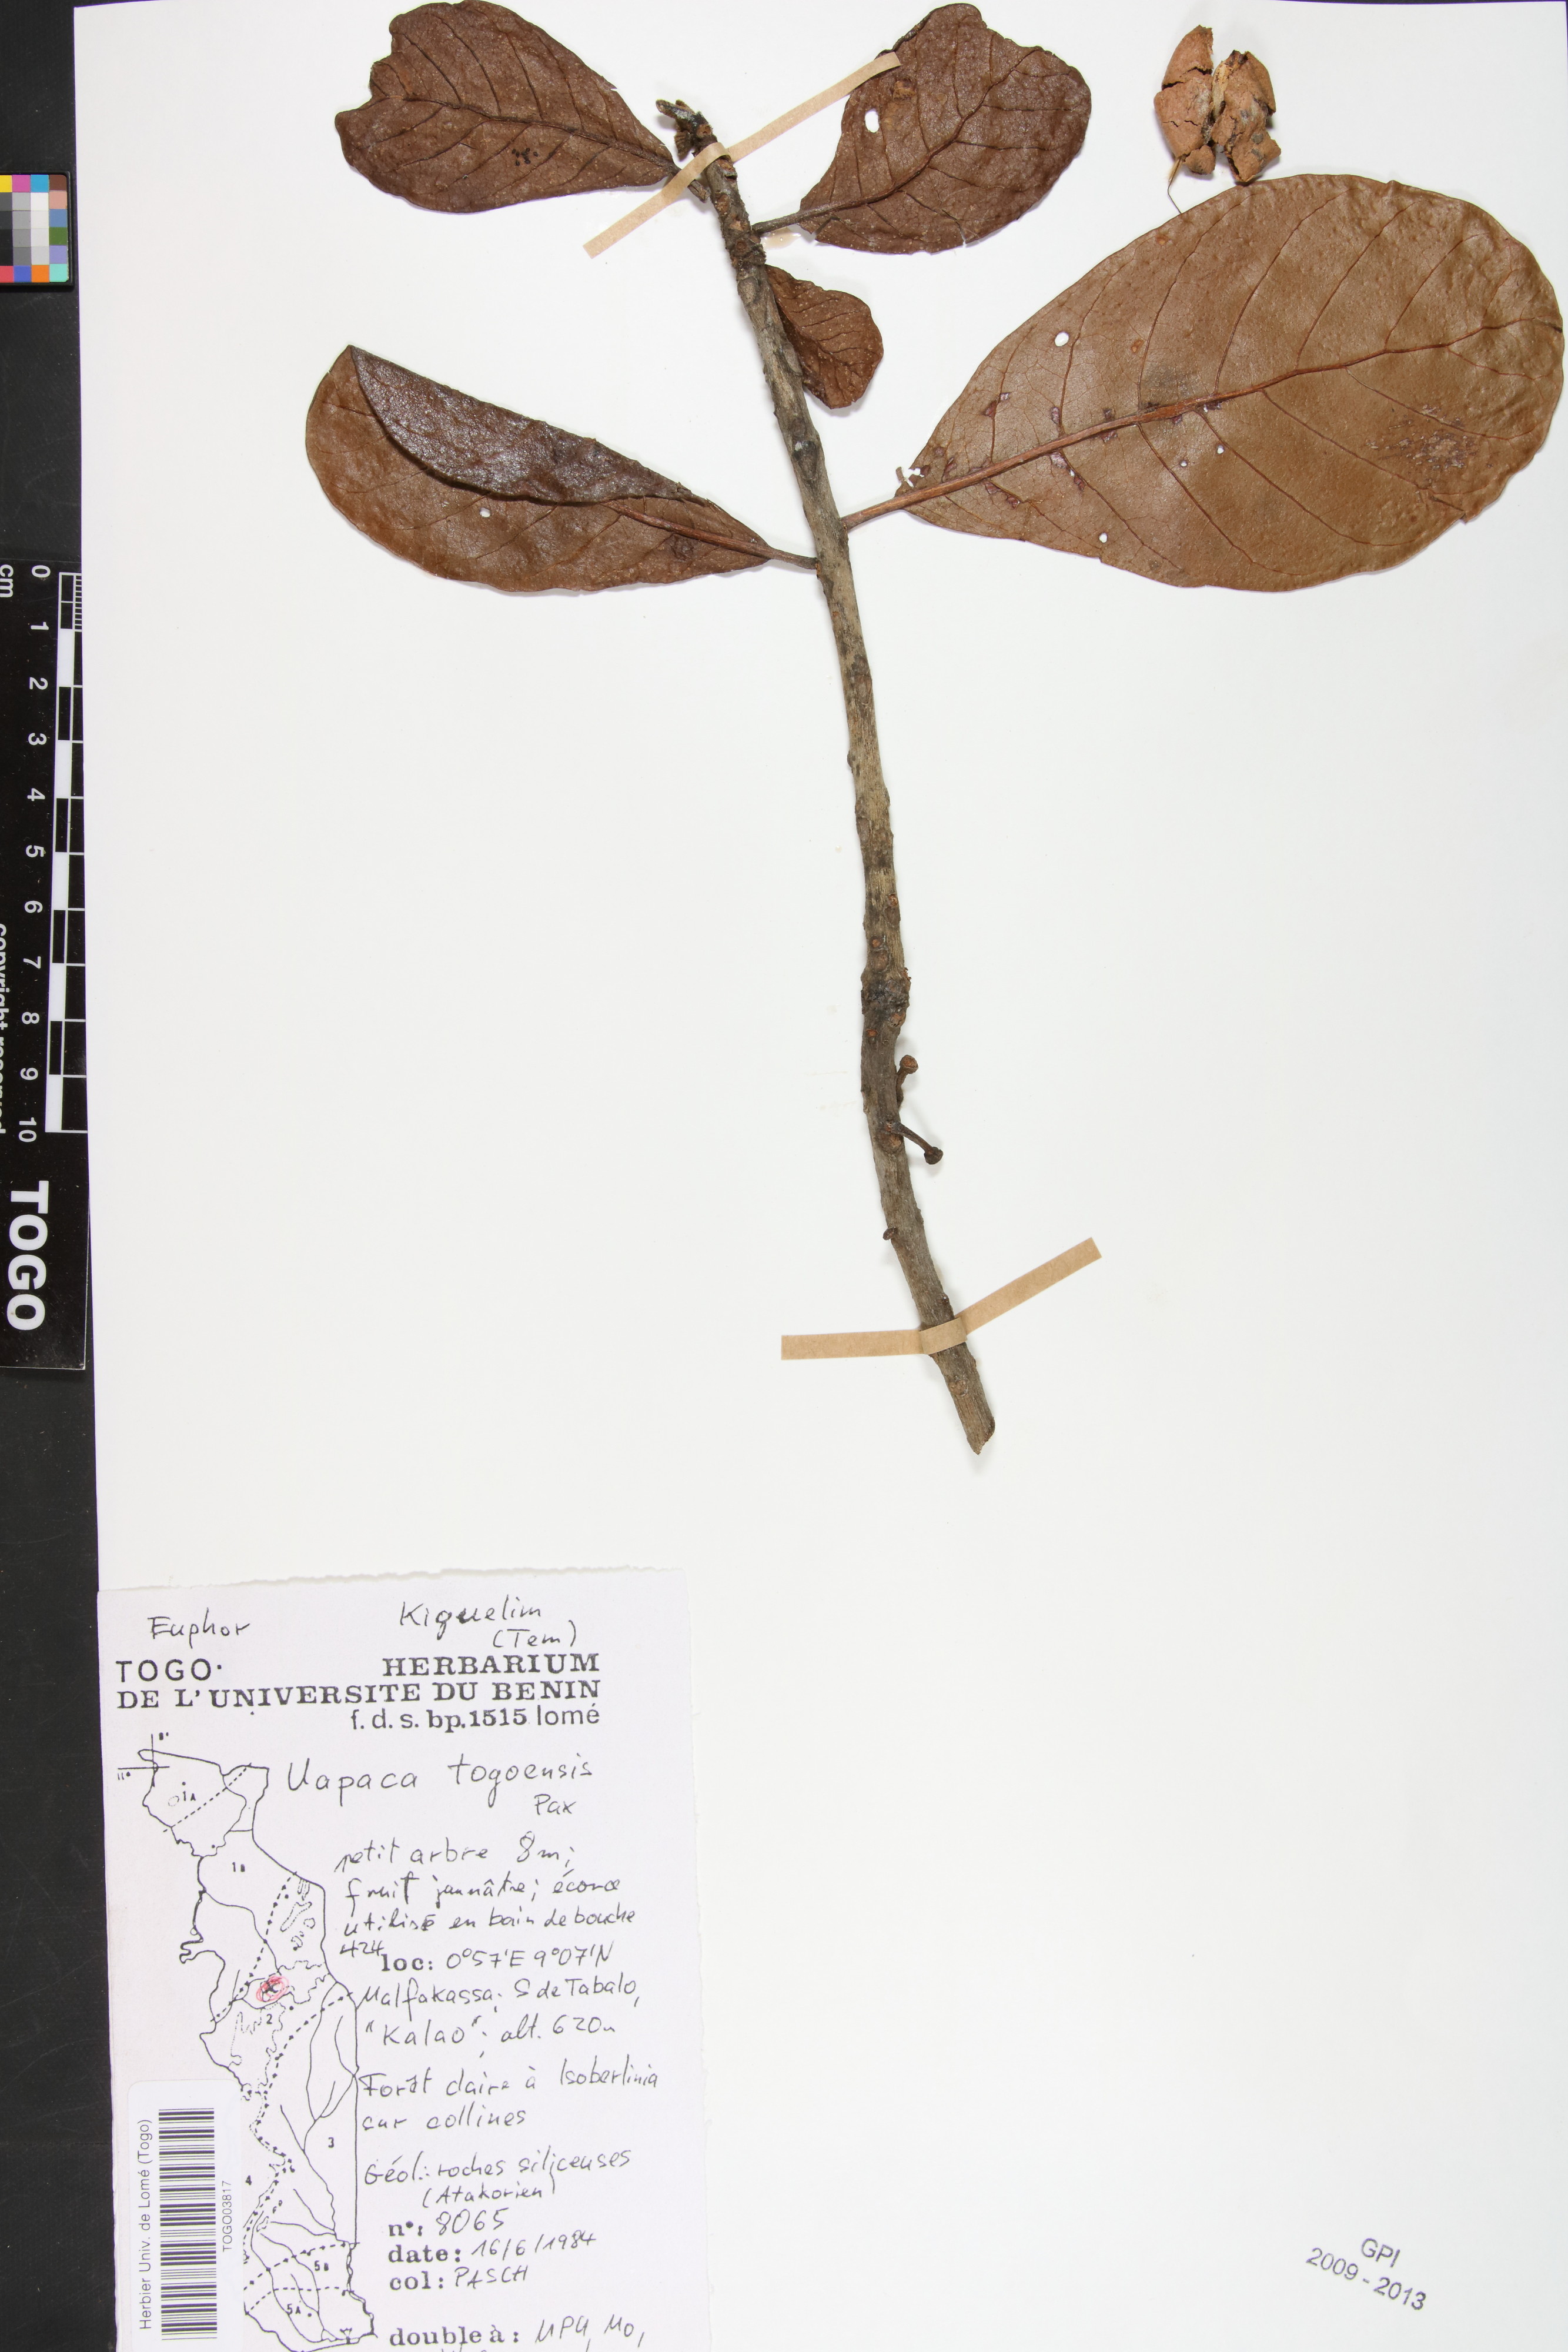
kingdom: Plantae
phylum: Tracheophyta
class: Magnoliopsida
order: Malpighiales
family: Phyllanthaceae
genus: Uapaca
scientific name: Uapaca togoensis
